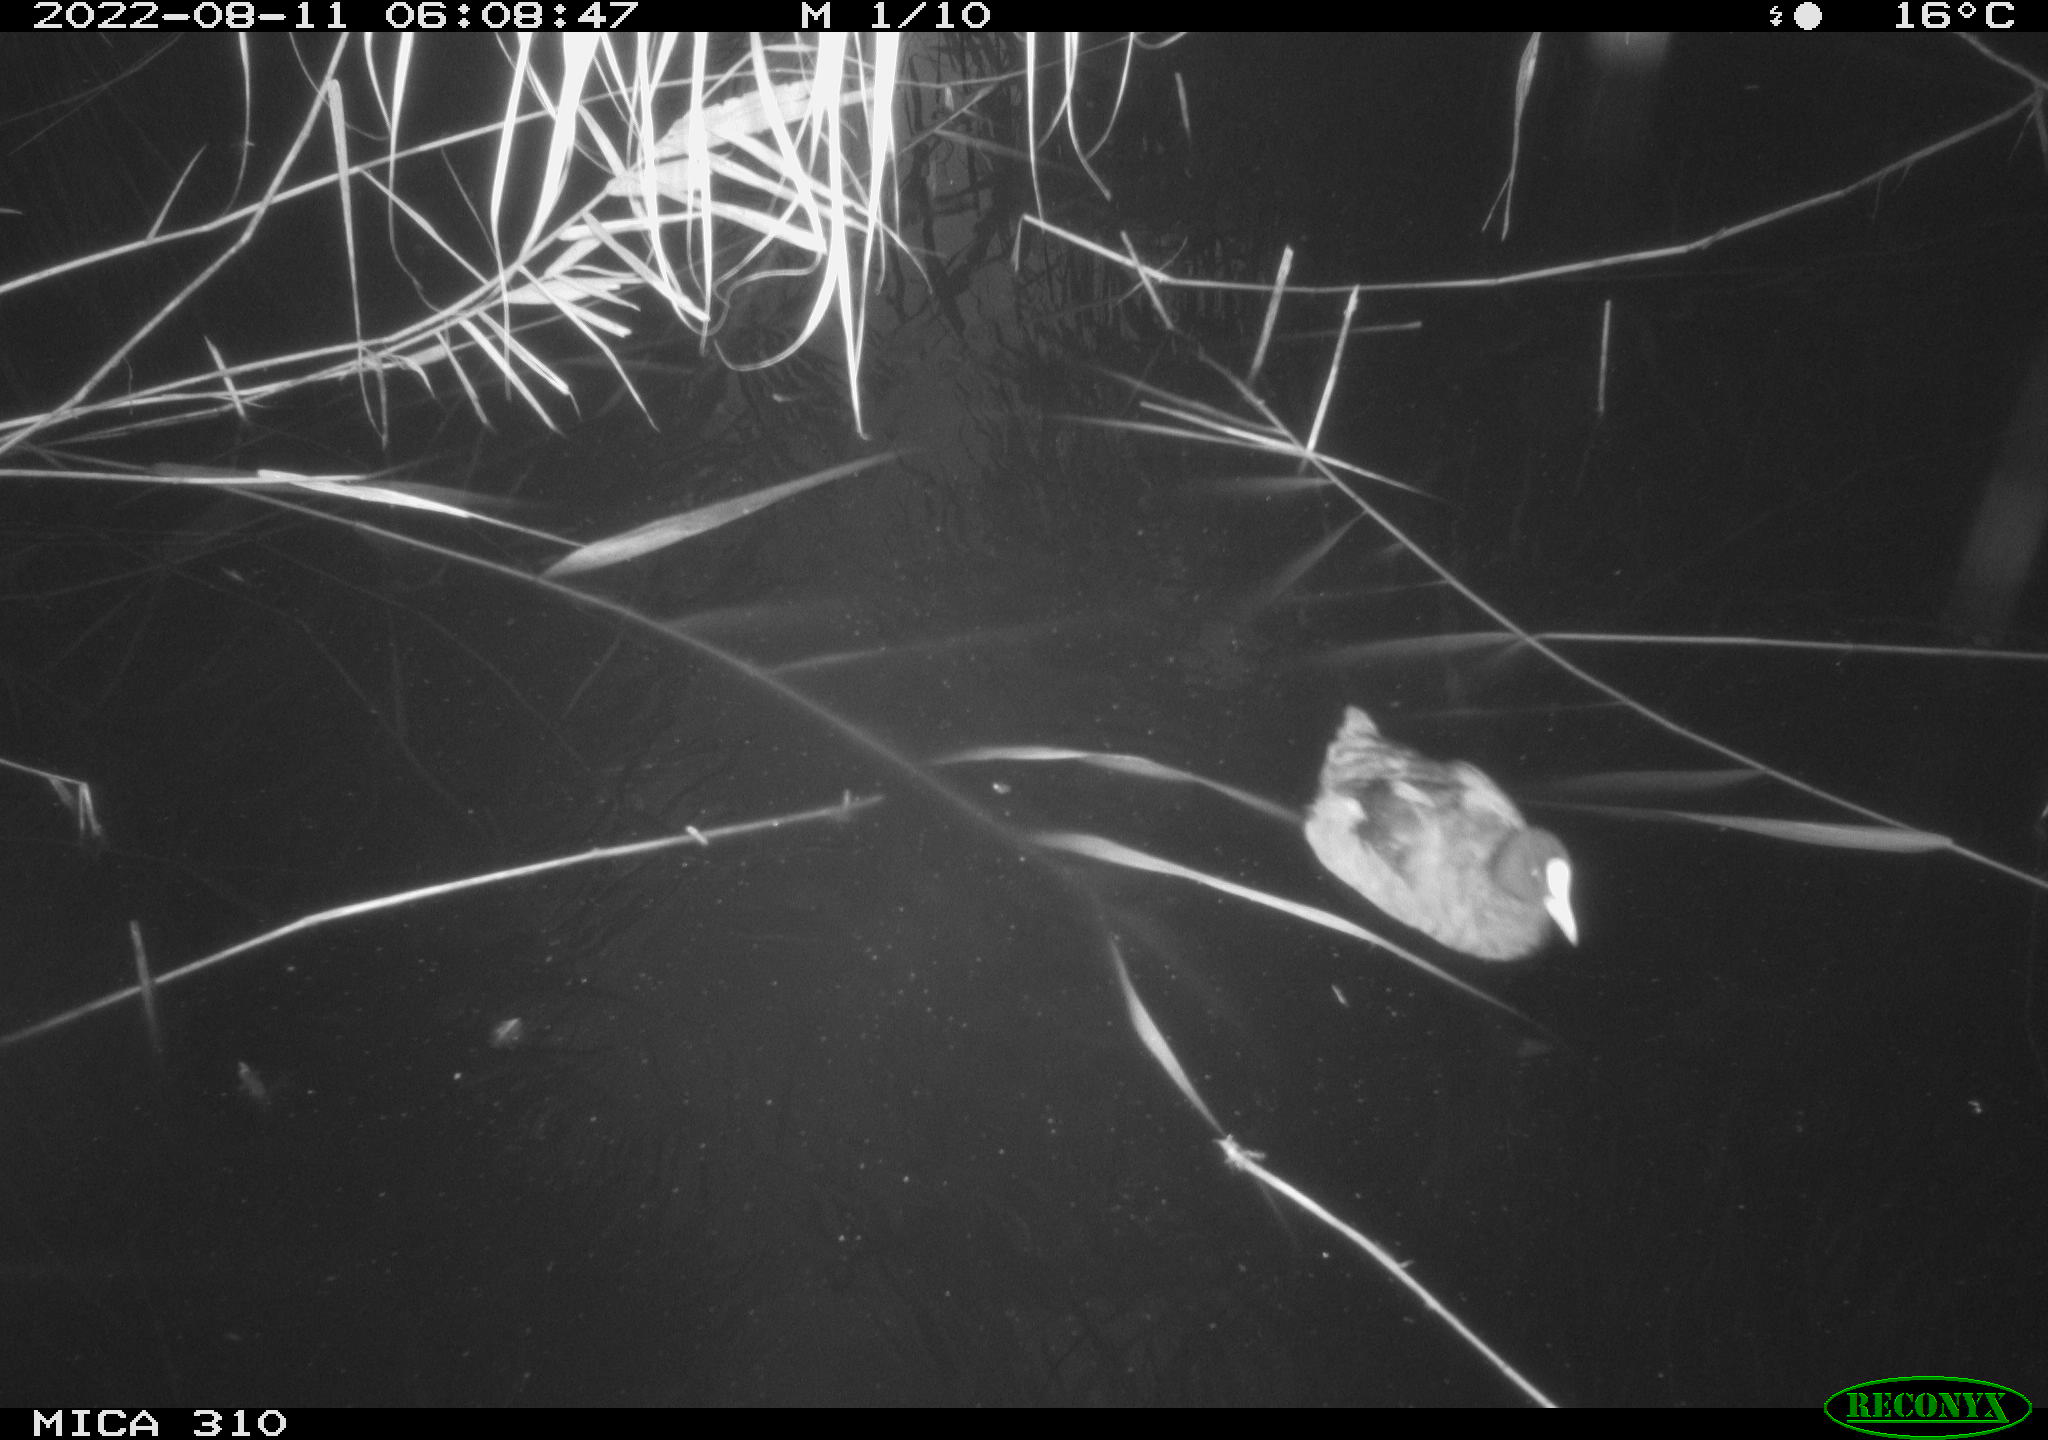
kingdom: Animalia
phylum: Chordata
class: Aves
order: Gruiformes
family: Rallidae
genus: Fulica
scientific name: Fulica atra
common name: Eurasian coot
